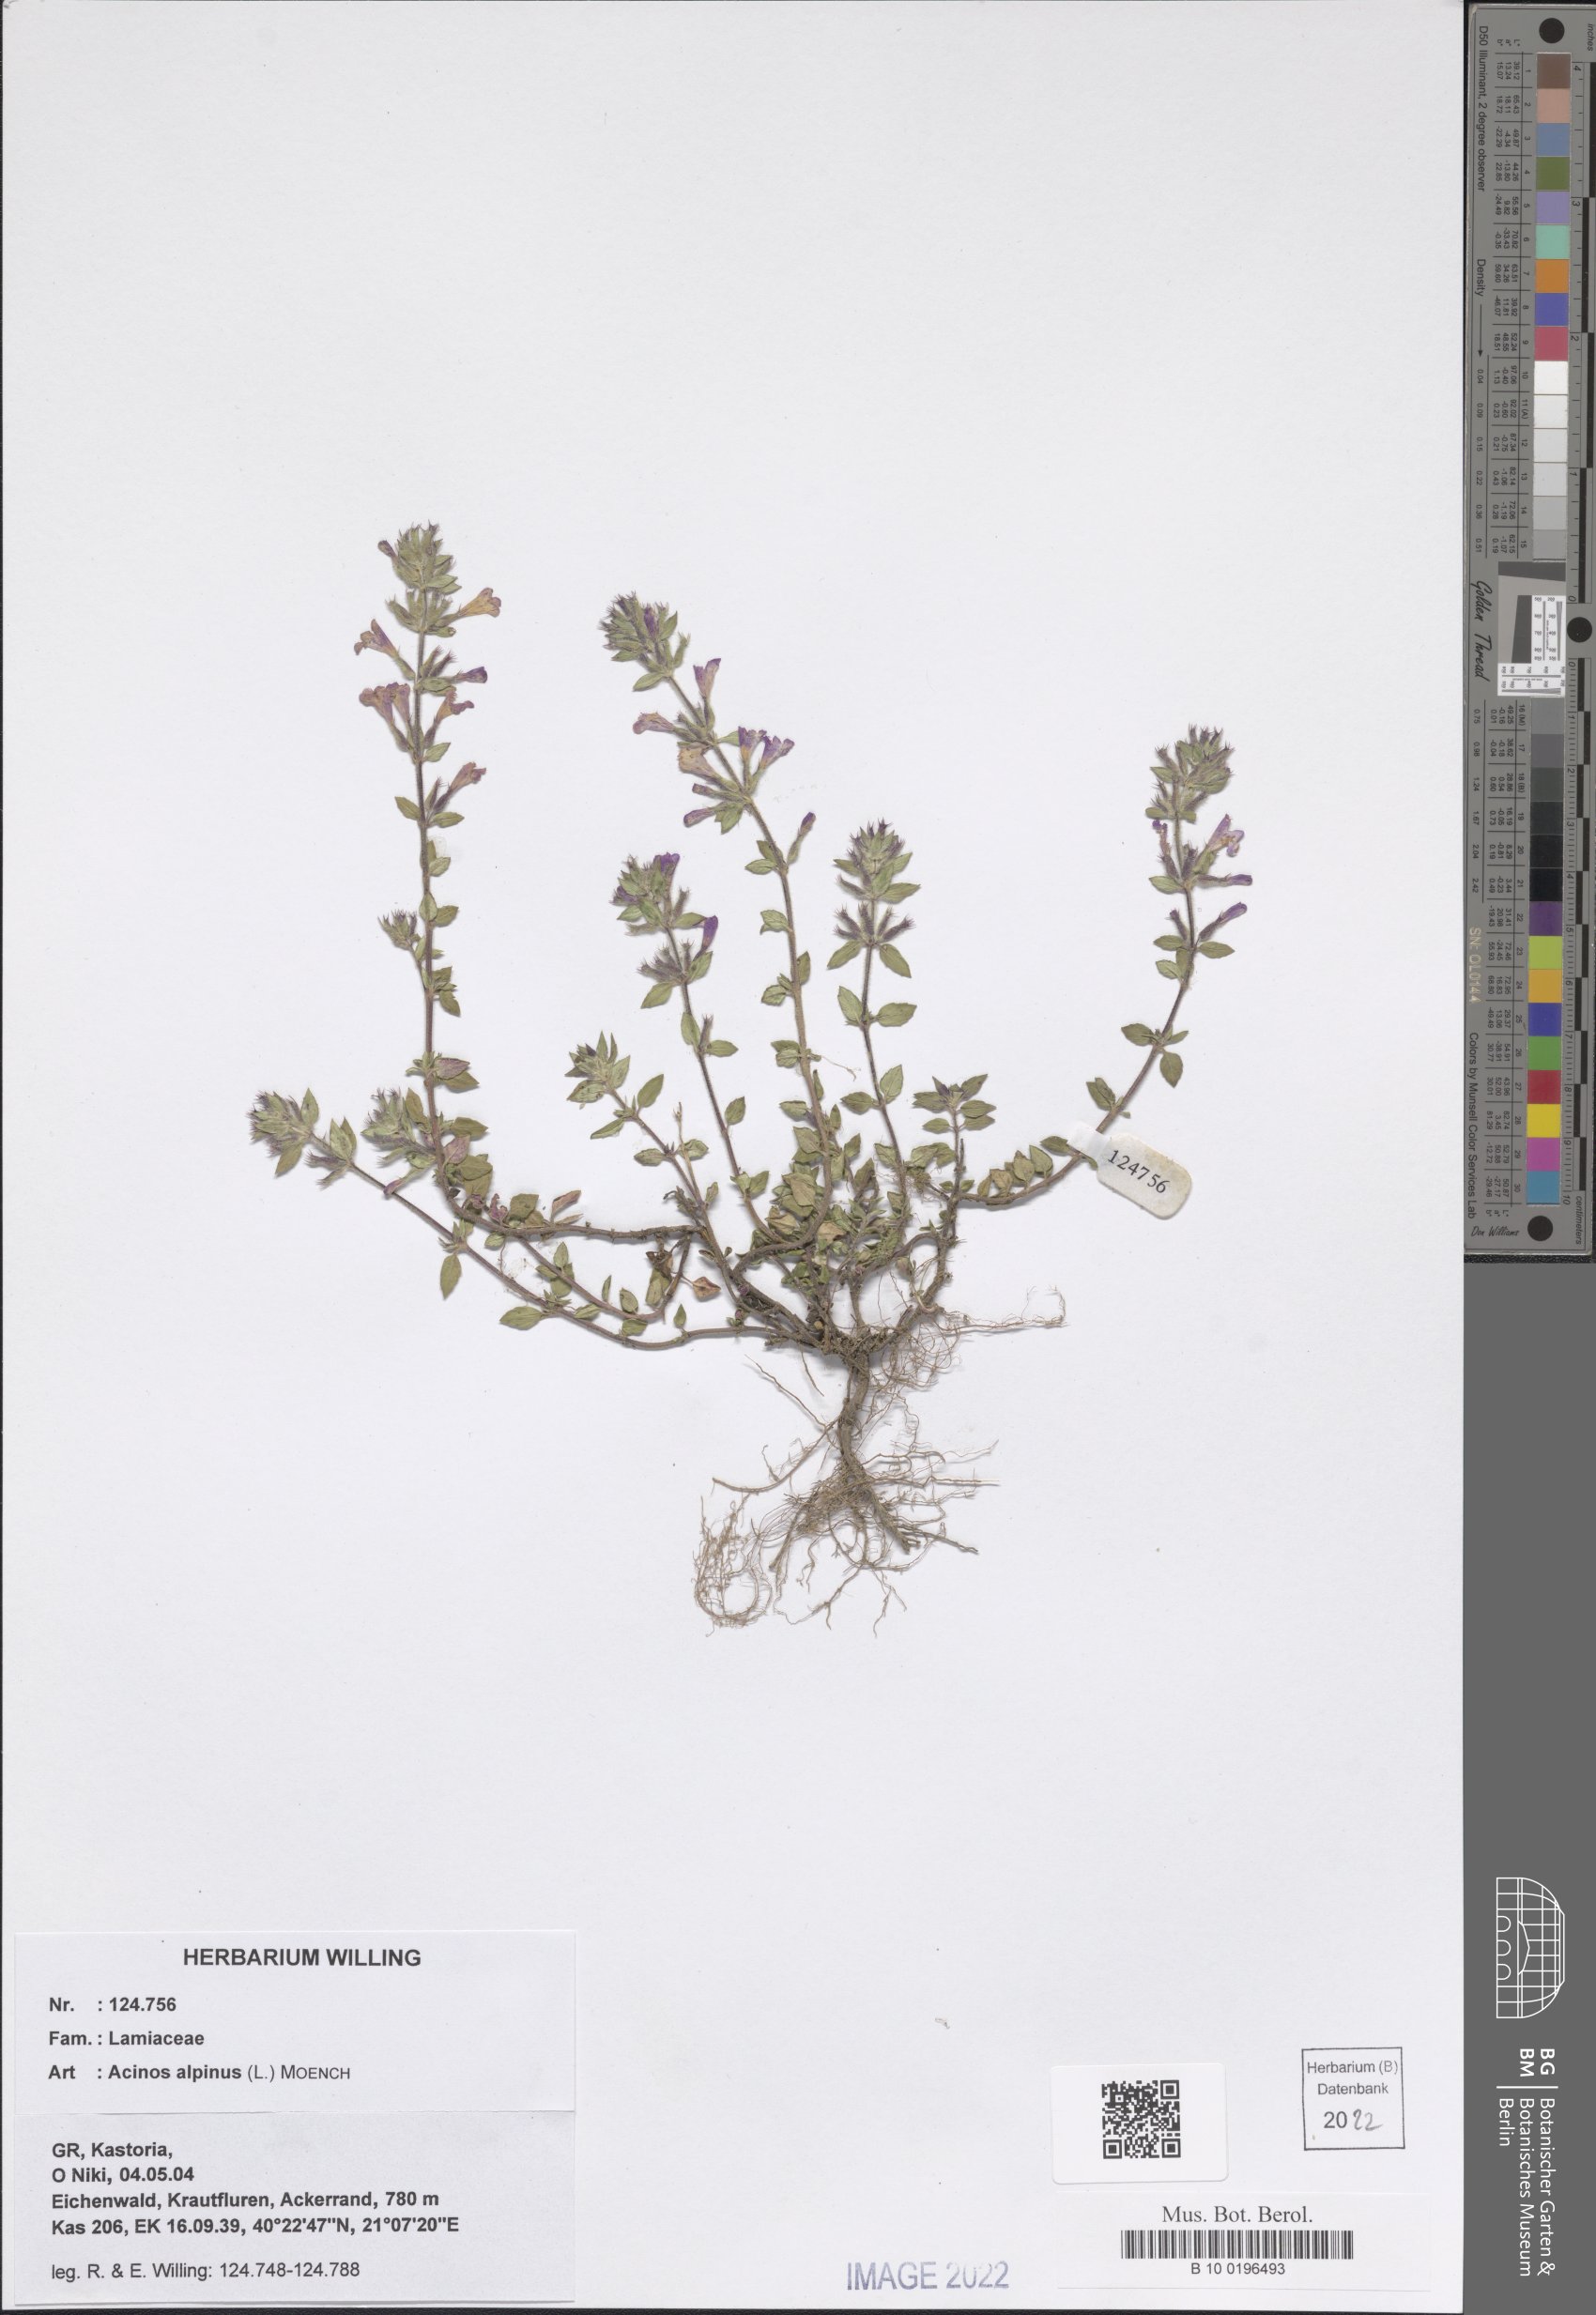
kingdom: Plantae
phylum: Tracheophyta
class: Magnoliopsida
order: Lamiales
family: Lamiaceae
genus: Clinopodium
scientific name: Clinopodium alpinum
